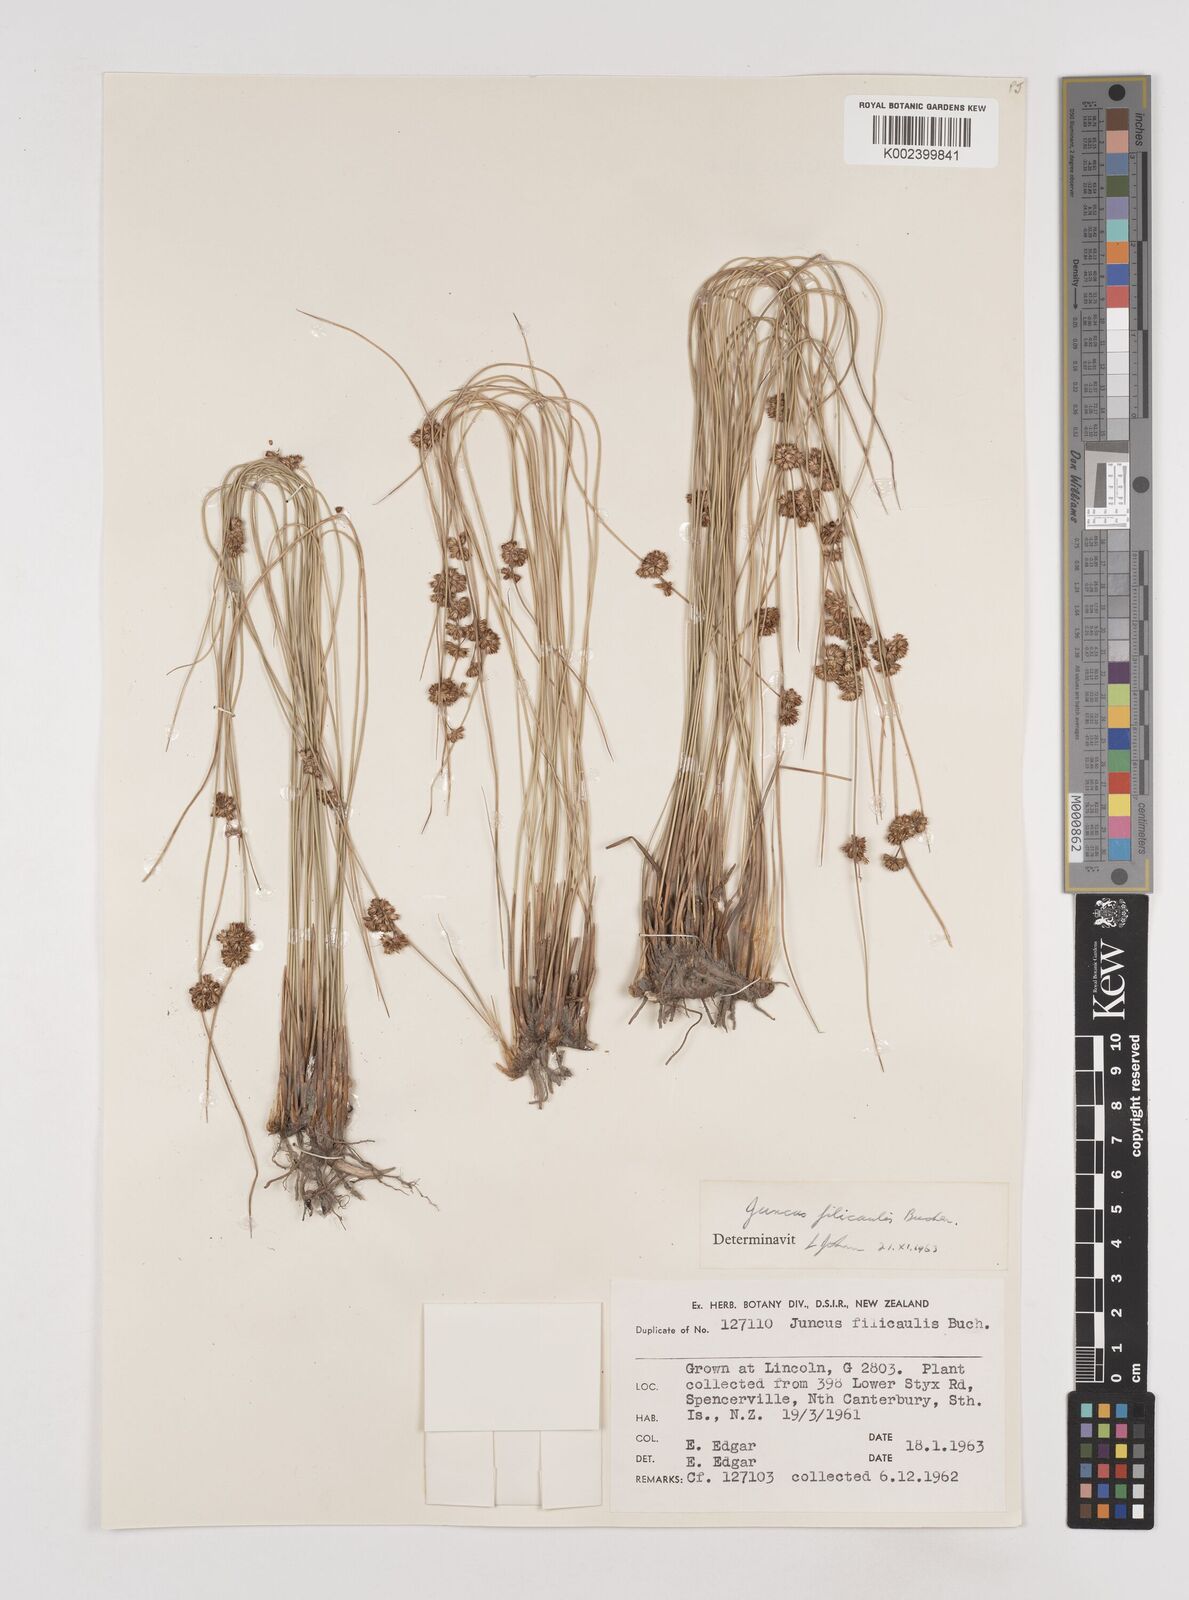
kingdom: Plantae
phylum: Tracheophyta
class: Liliopsida
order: Poales
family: Juncaceae
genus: Juncus
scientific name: Juncus filicaulis
